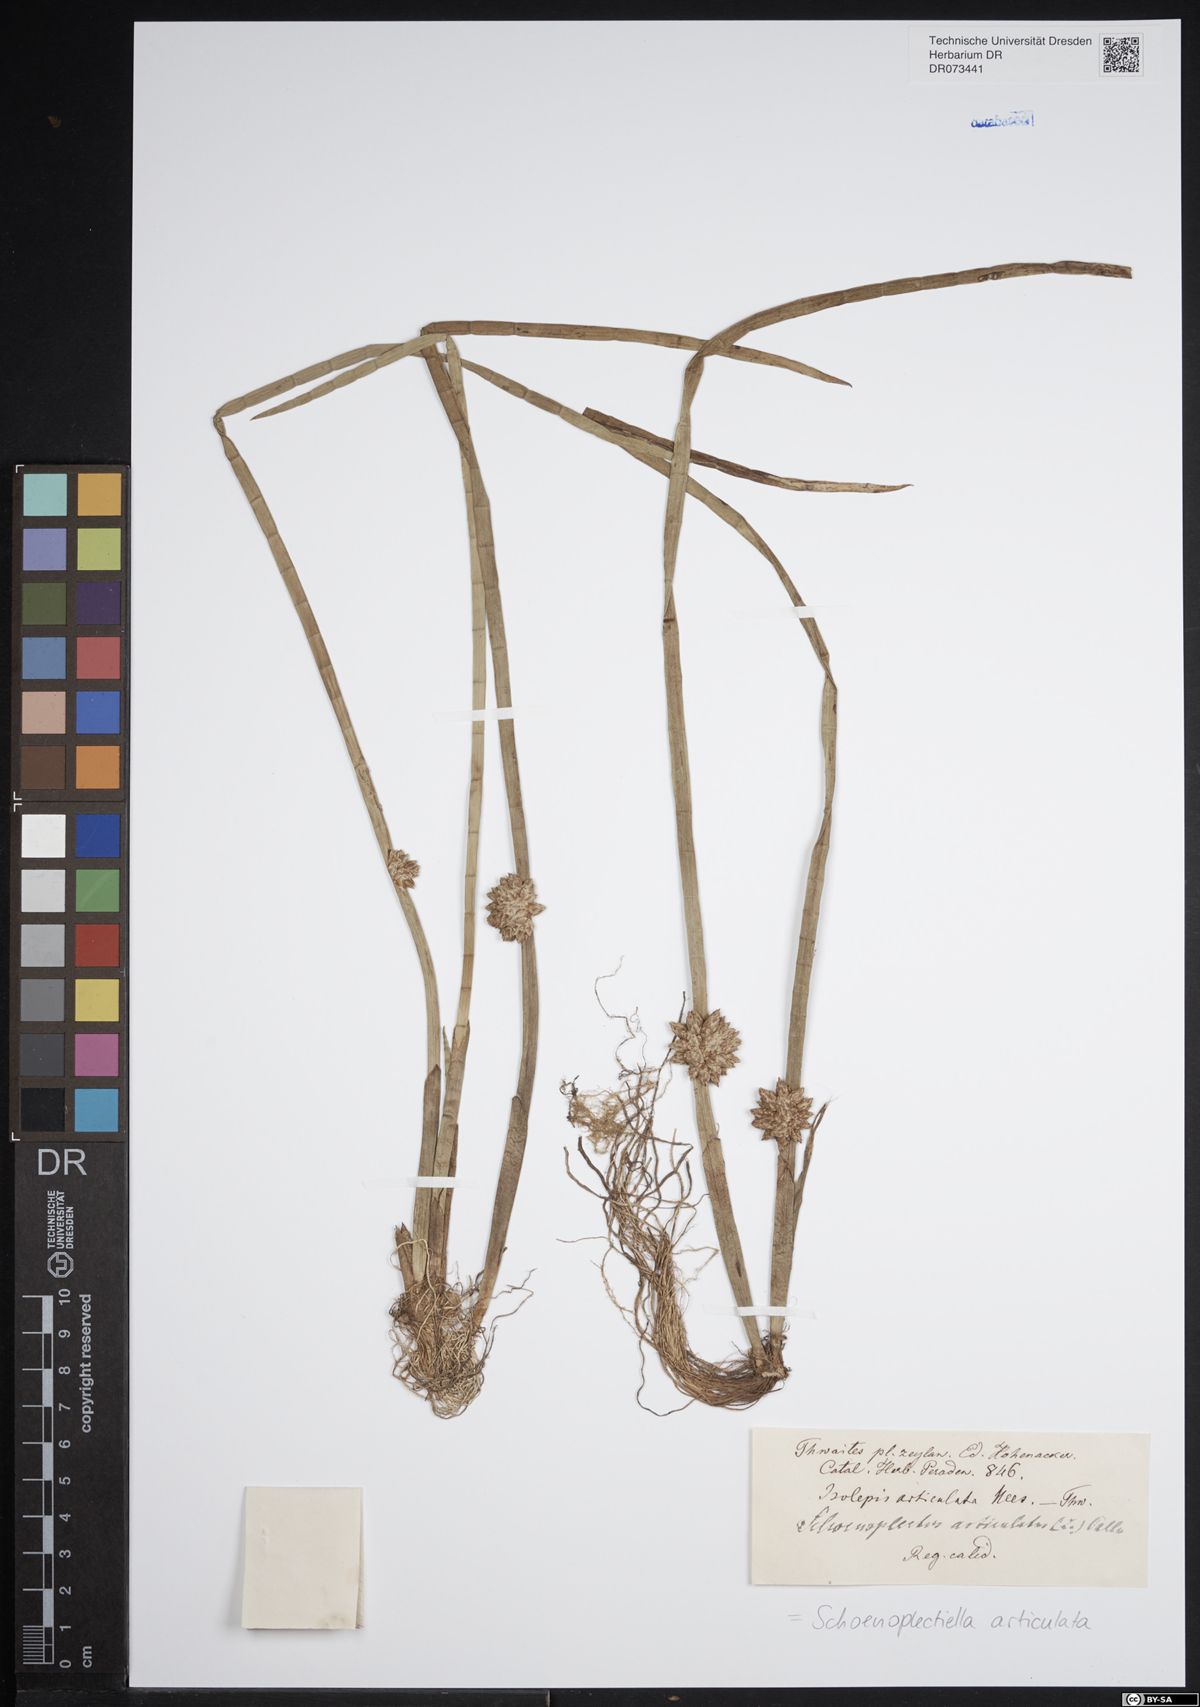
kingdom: Plantae
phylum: Tracheophyta
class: Liliopsida
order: Poales
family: Cyperaceae
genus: Schoenoplectiella
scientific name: Schoenoplectiella articulata
